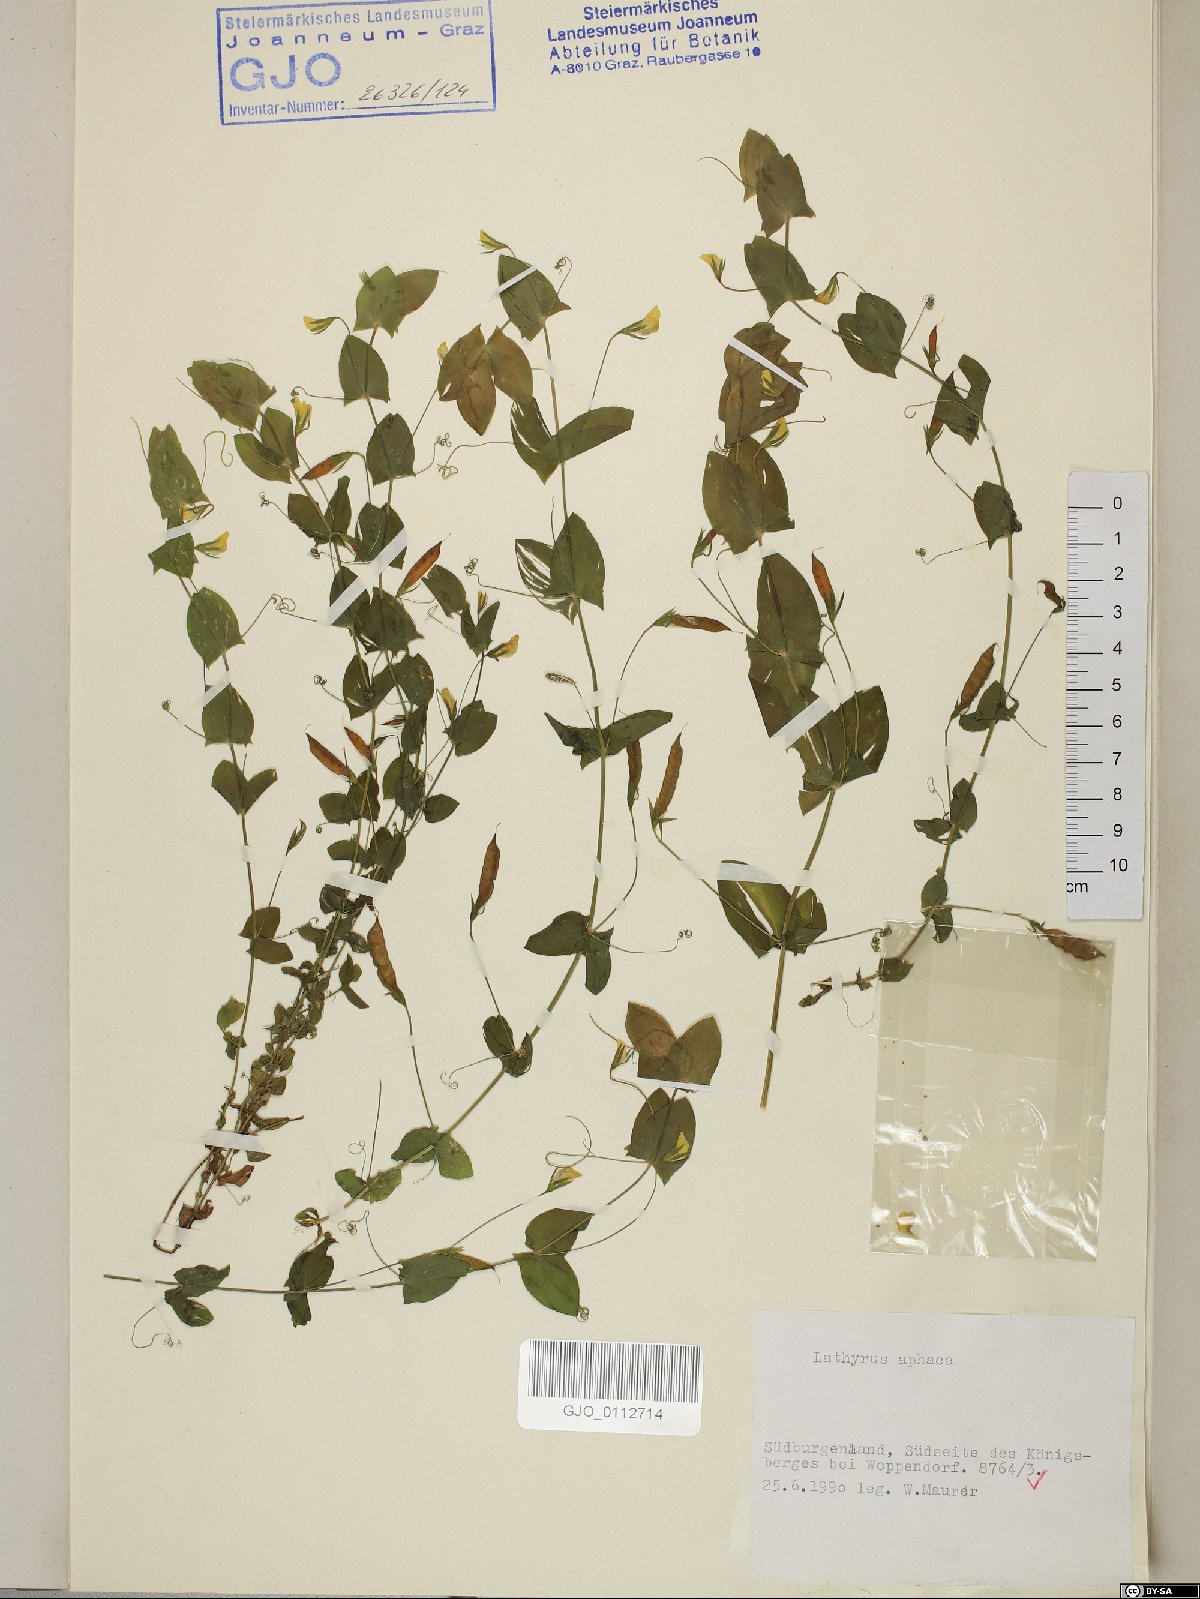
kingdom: Plantae
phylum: Tracheophyta
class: Magnoliopsida
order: Fabales
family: Fabaceae
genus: Lathyrus
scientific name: Lathyrus aphaca
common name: Yellow vetchling
